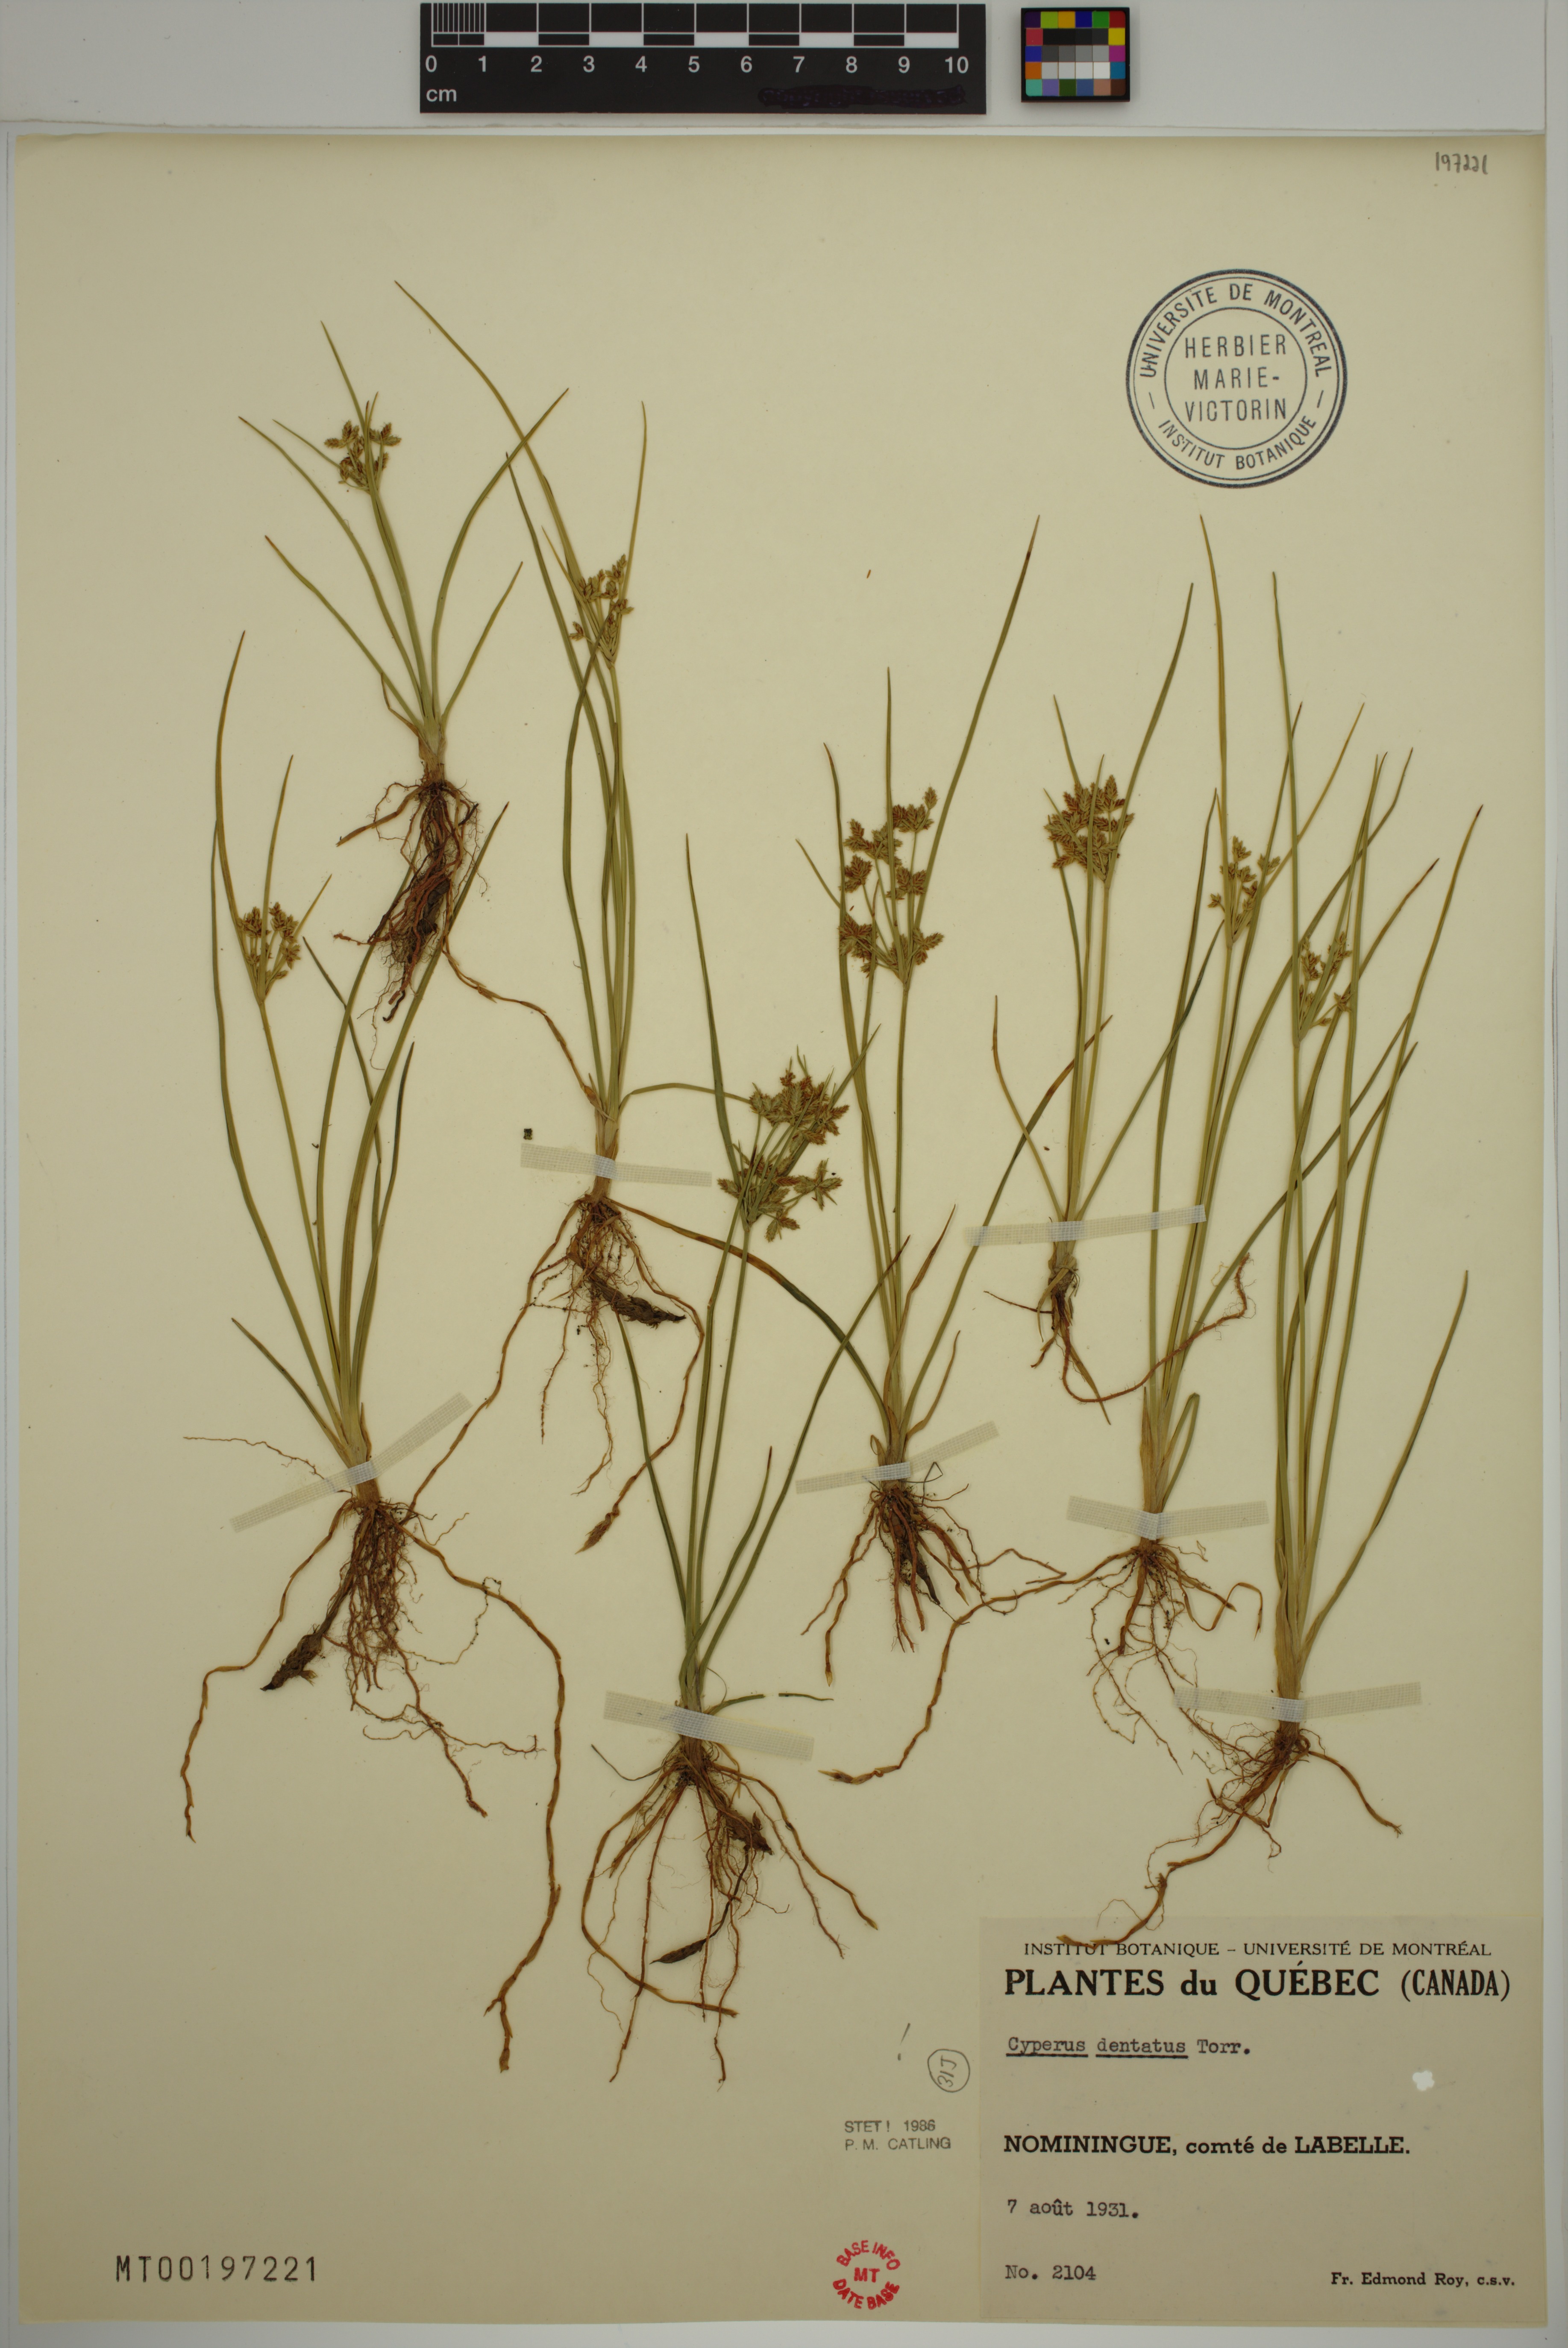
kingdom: Plantae
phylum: Tracheophyta
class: Liliopsida
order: Poales
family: Cyperaceae
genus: Cyperus
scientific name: Cyperus dentatus
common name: Dentate umbrella sedge
